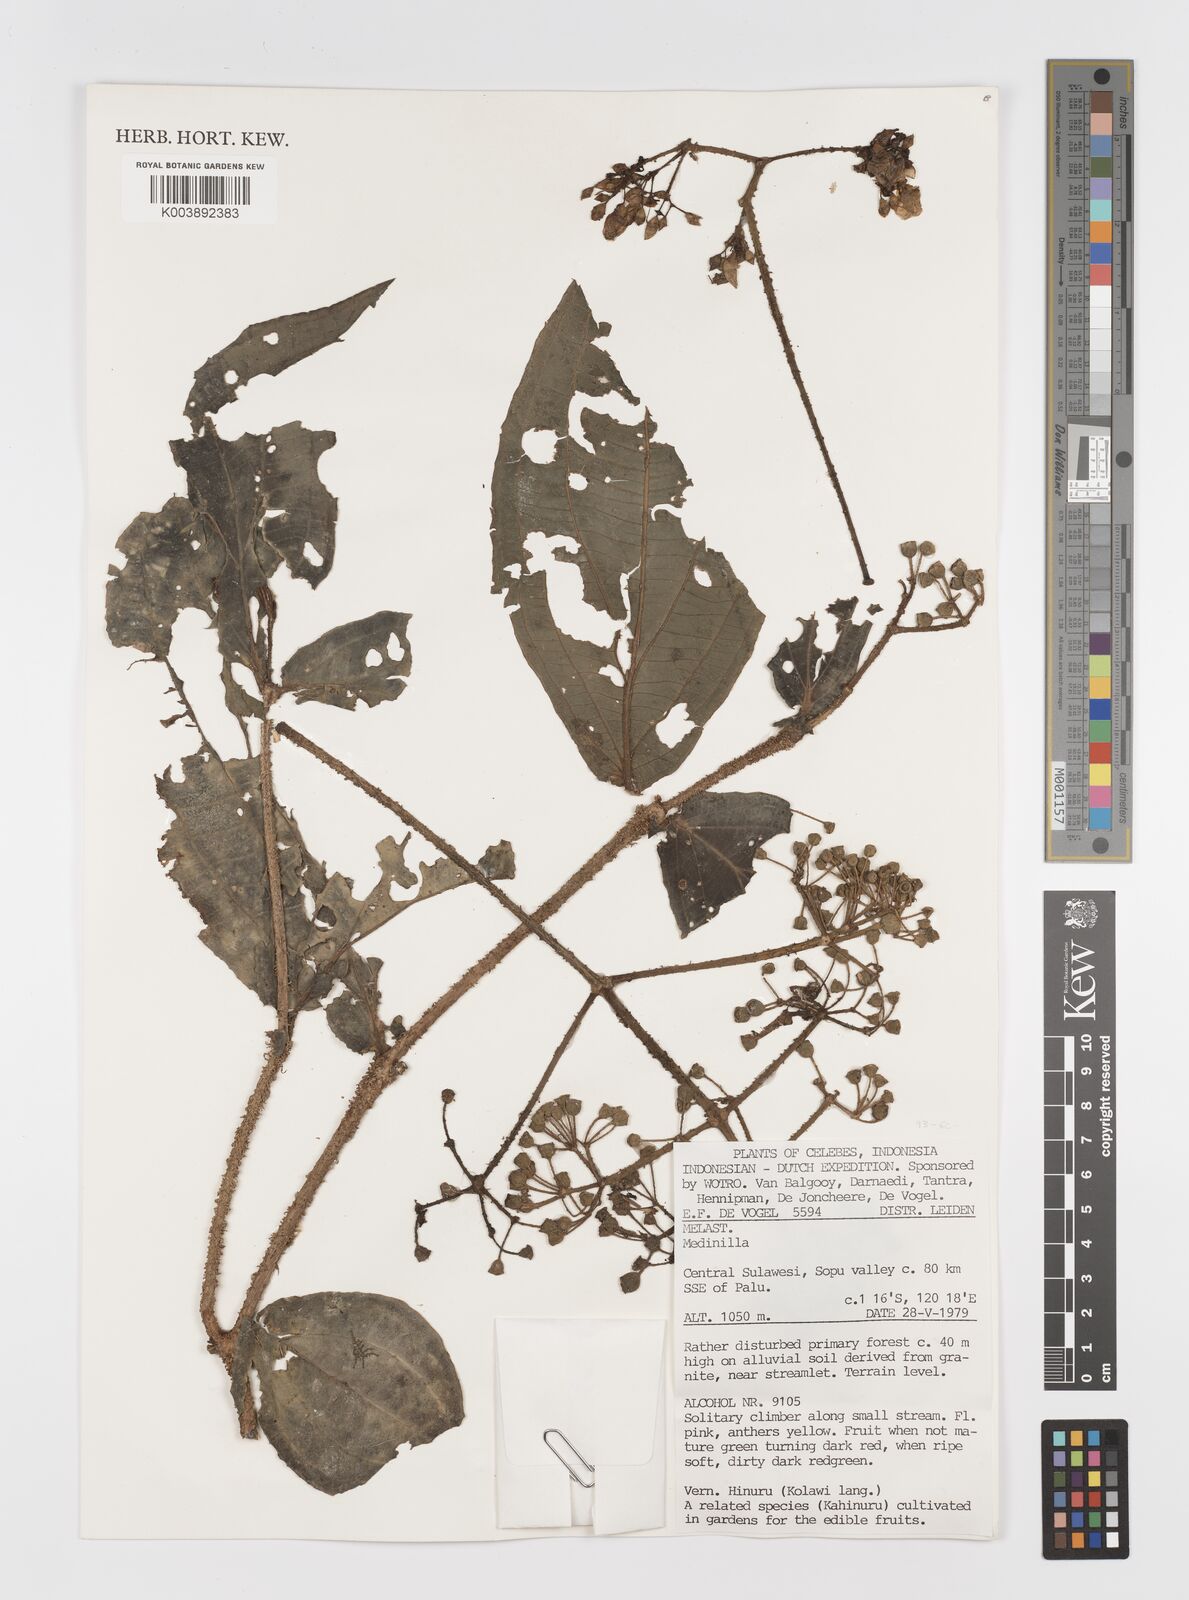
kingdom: Plantae
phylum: Tracheophyta
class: Magnoliopsida
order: Myrtales
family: Melastomataceae
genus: Medinilla
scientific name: Medinilla
